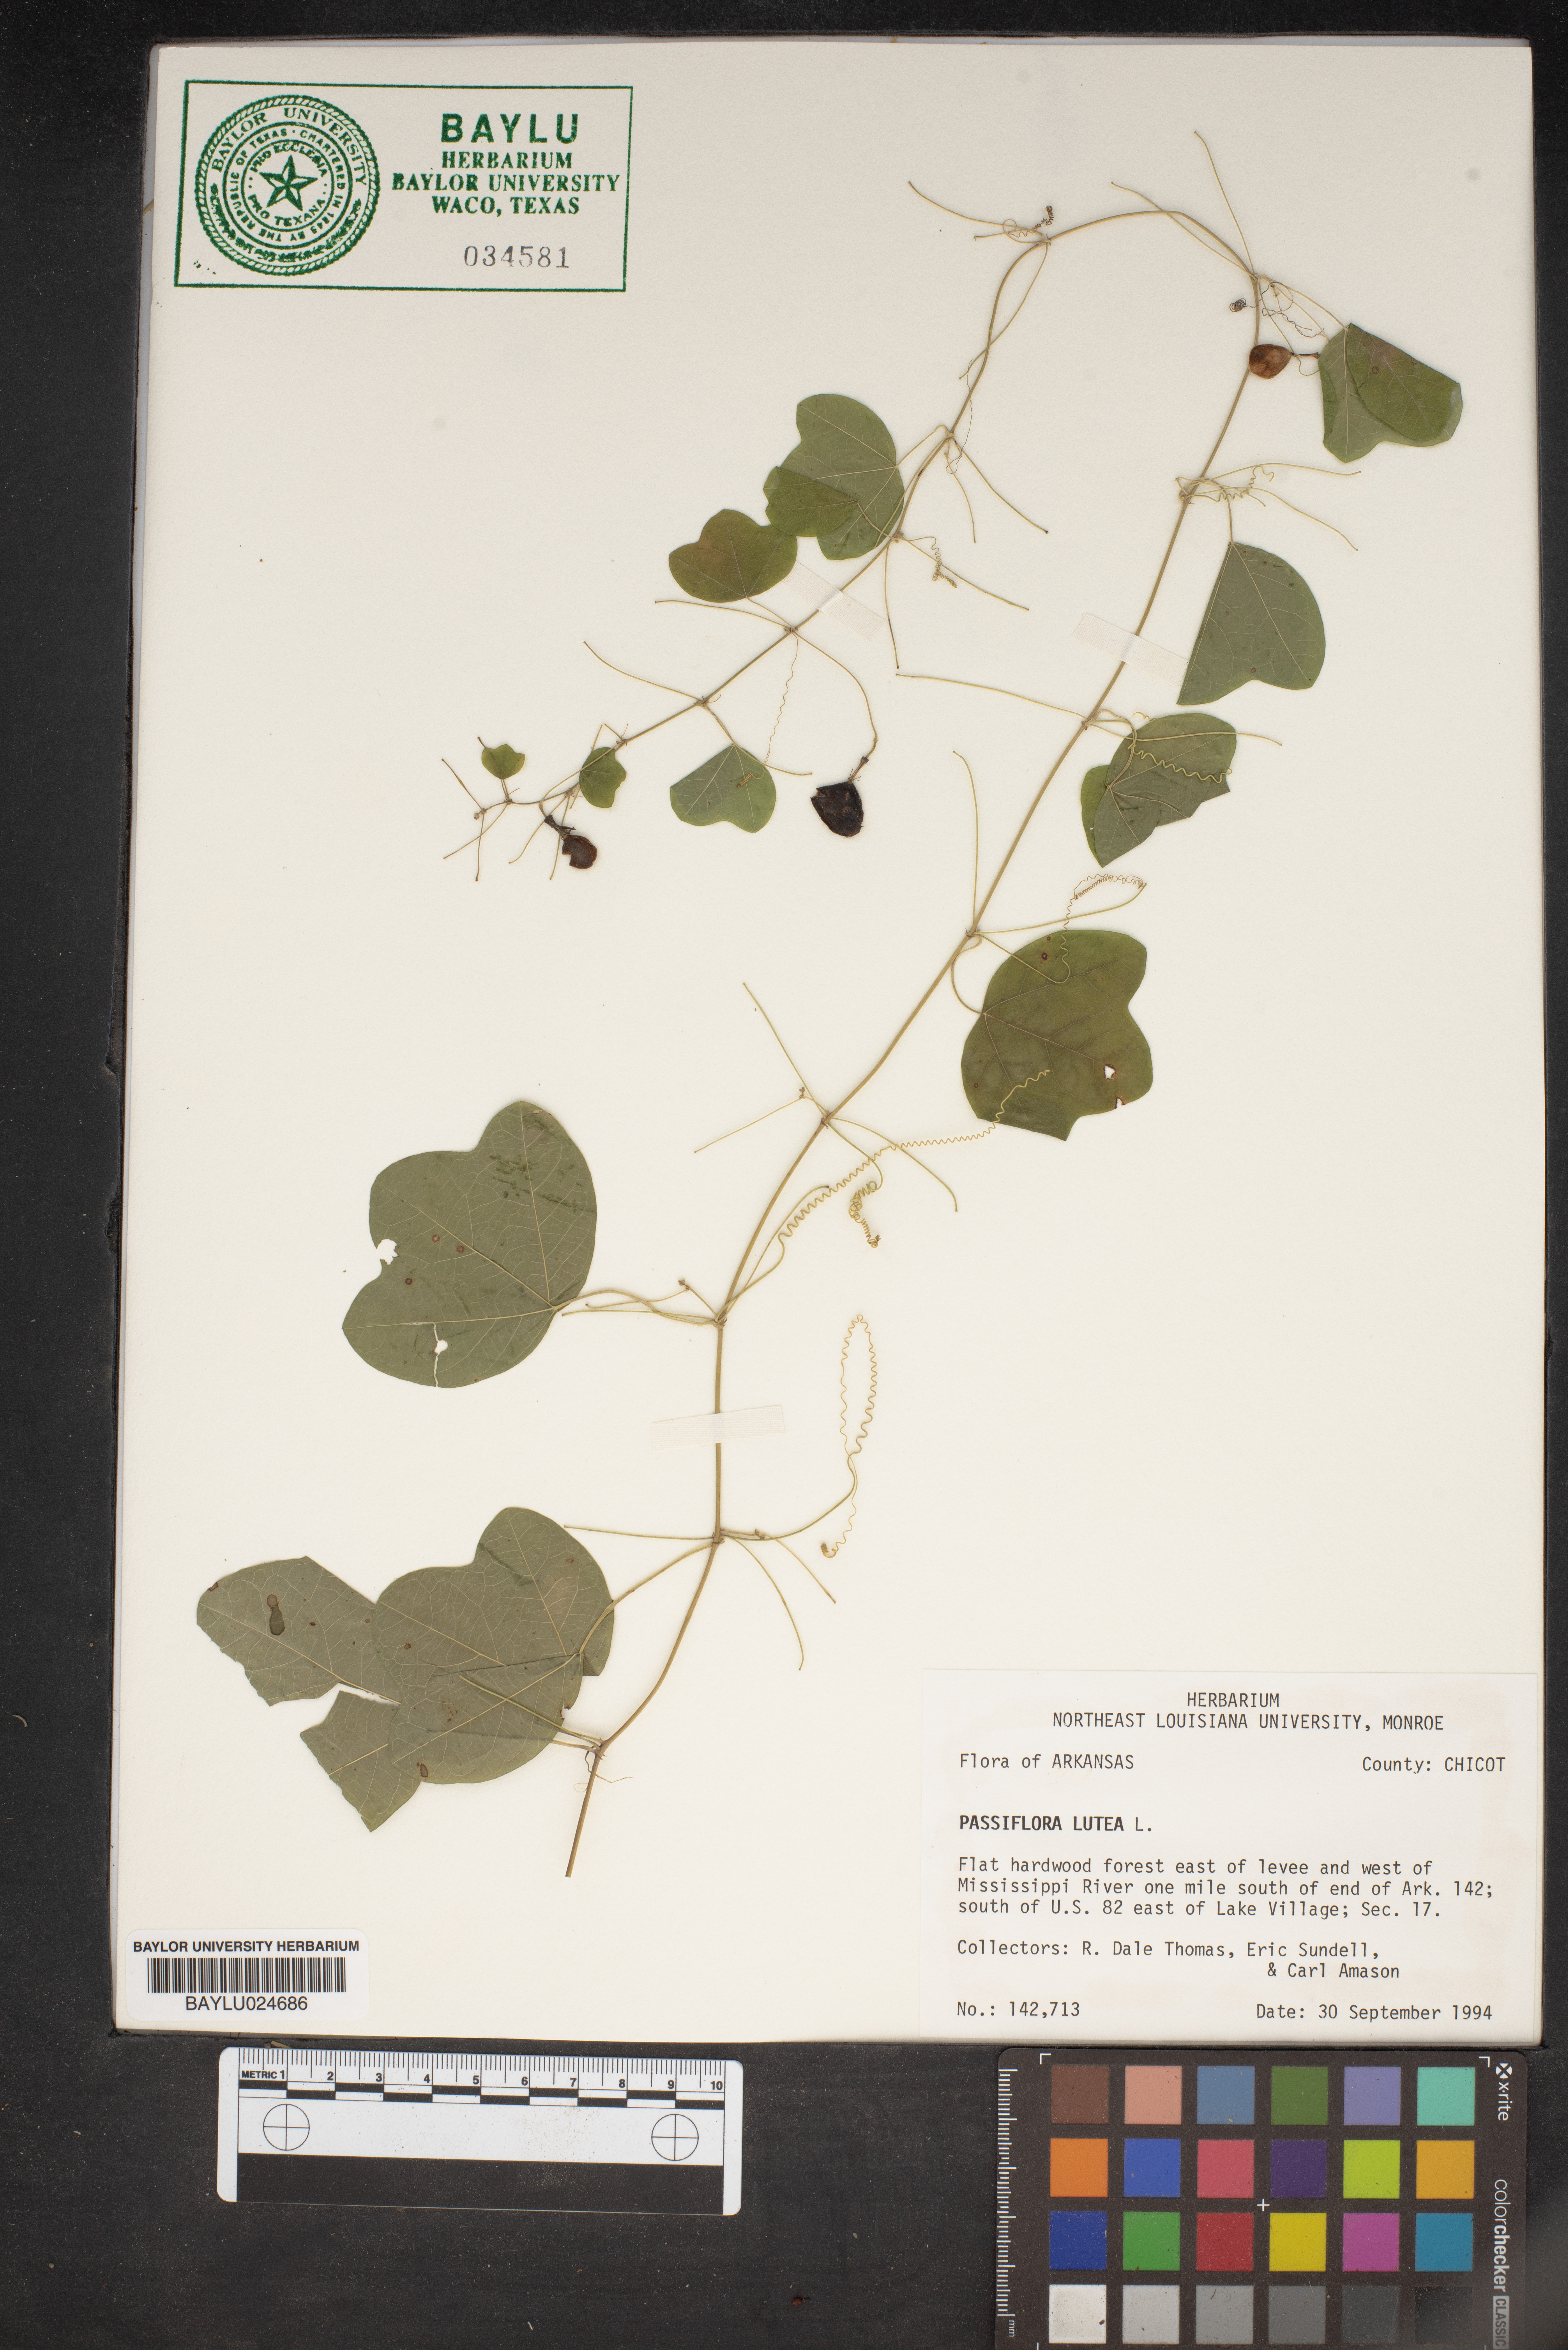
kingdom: Plantae
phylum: Tracheophyta
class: Magnoliopsida
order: Malpighiales
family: Passifloraceae
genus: Passiflora
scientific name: Passiflora lutea
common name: Yellow passionflower
